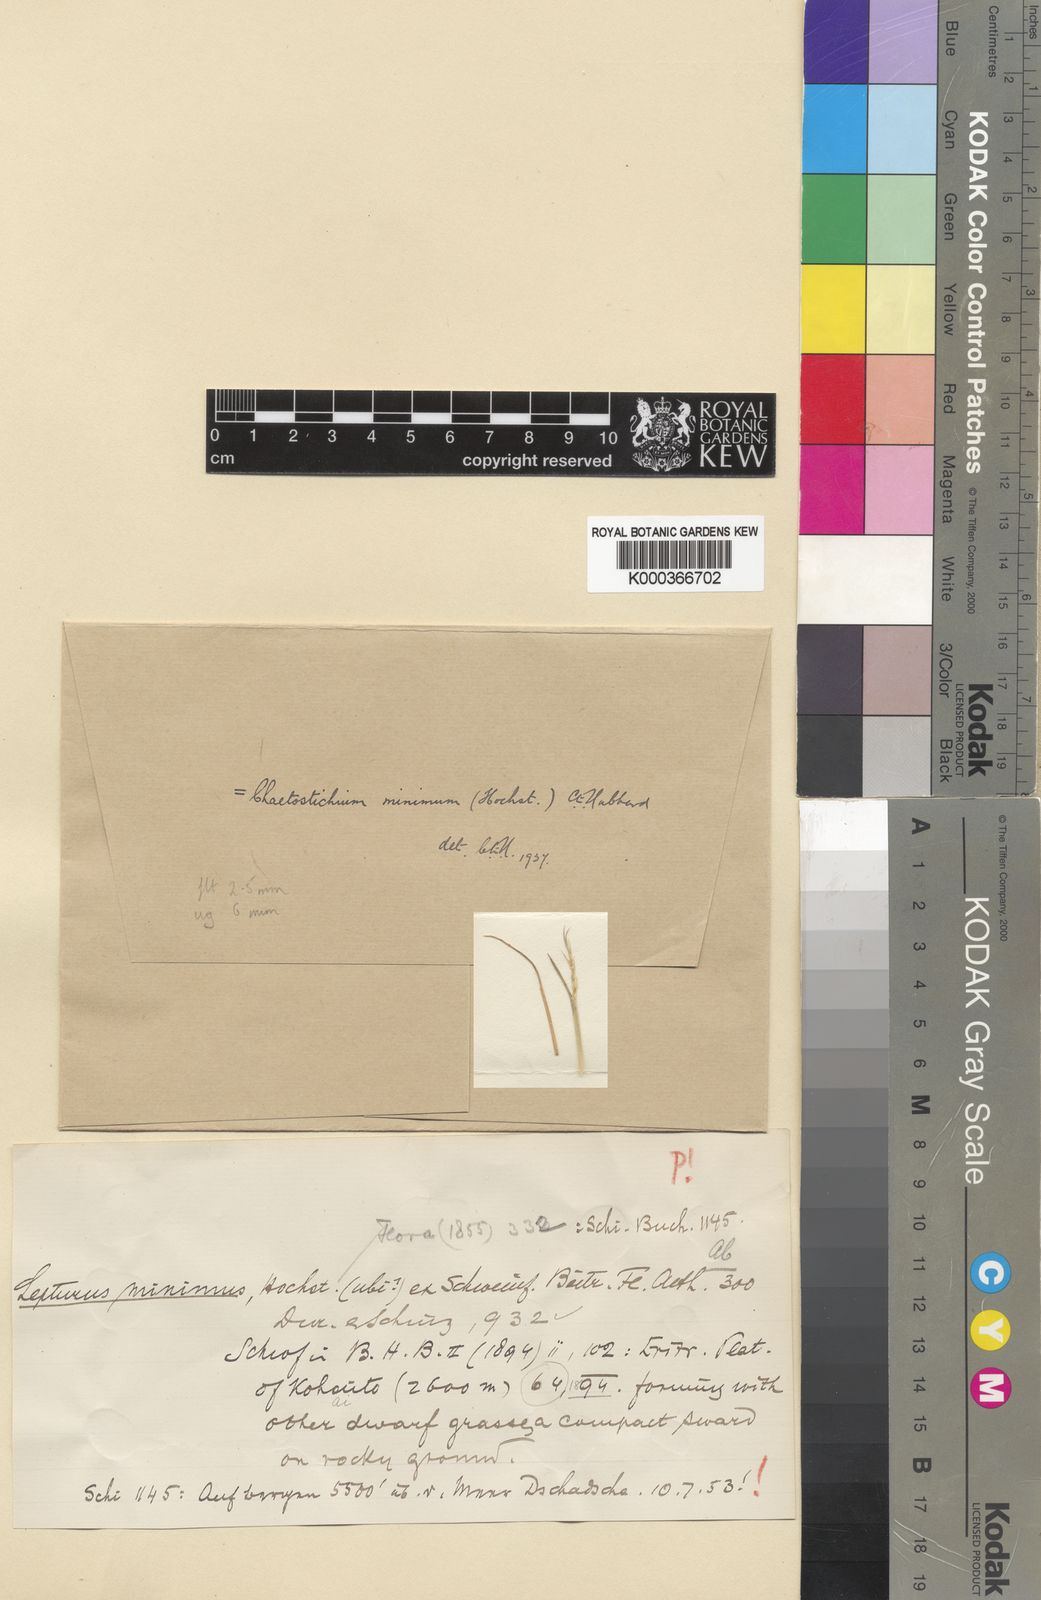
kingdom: Plantae
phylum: Tracheophyta
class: Liliopsida
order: Poales
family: Poaceae
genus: Oropetium
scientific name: Oropetium minimum
